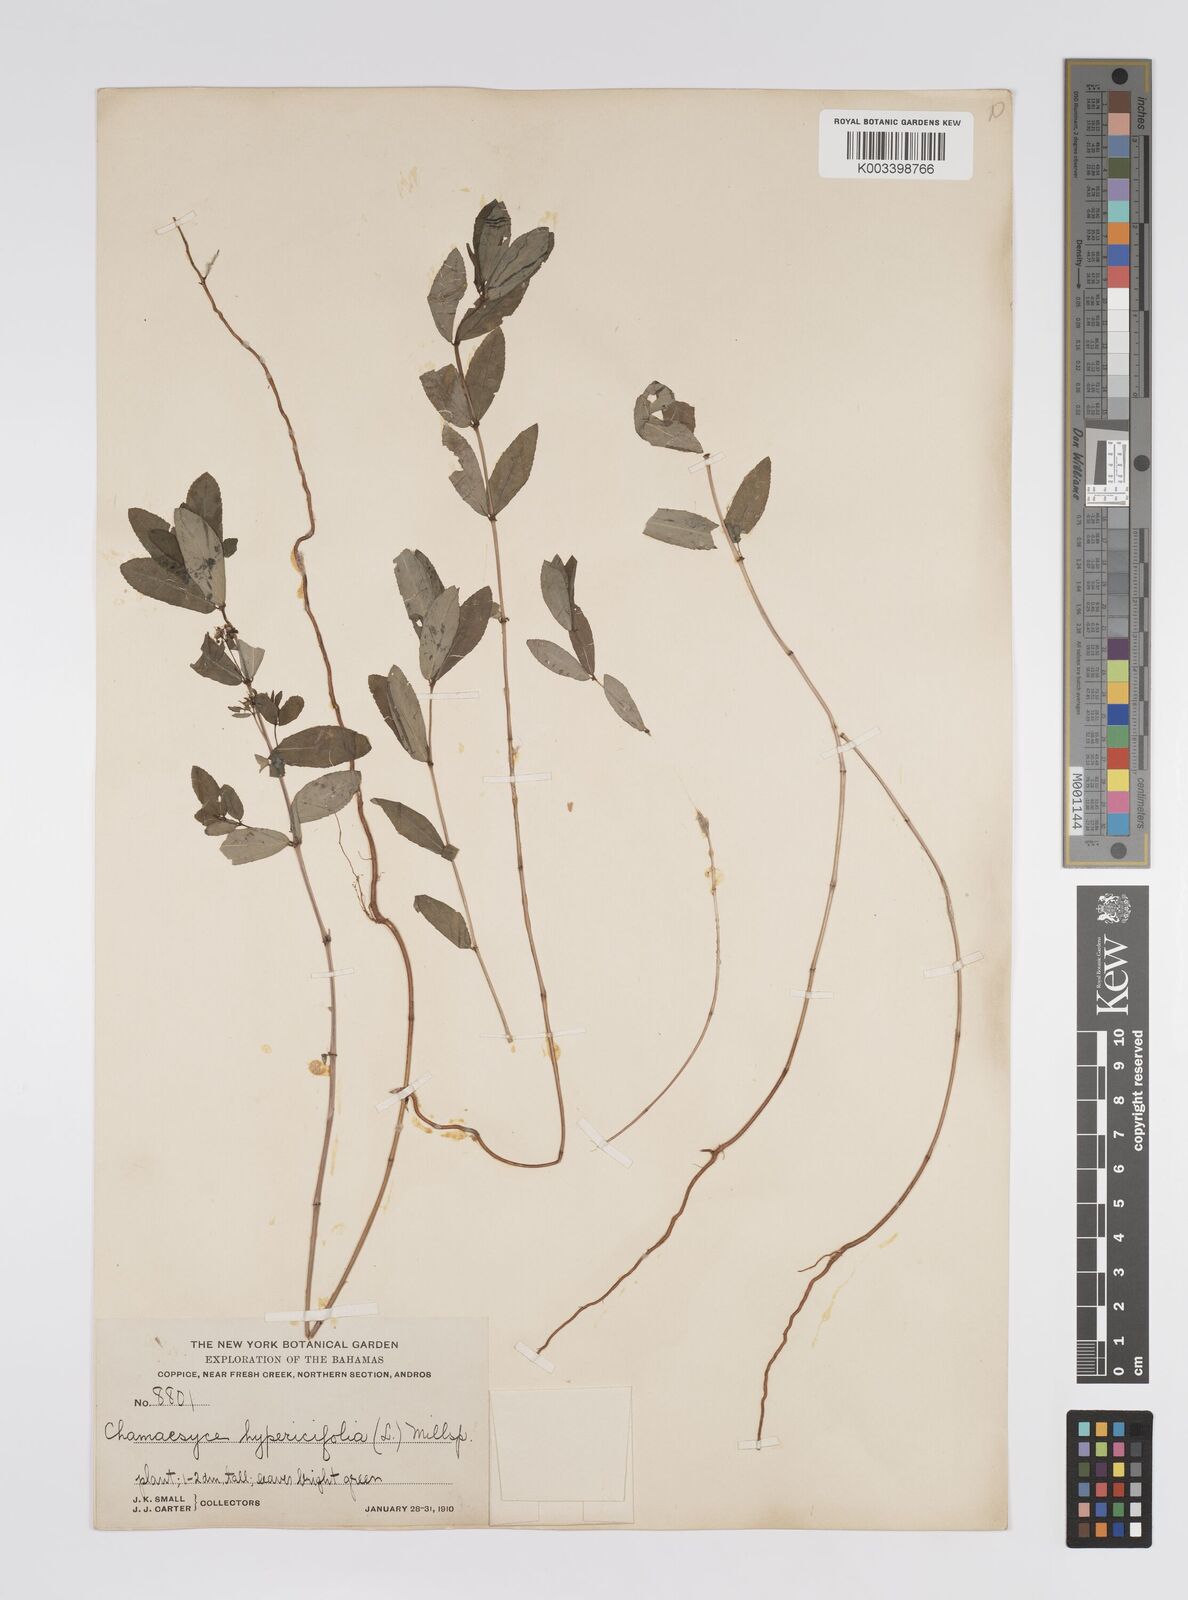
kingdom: Plantae
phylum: Tracheophyta
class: Magnoliopsida
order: Malpighiales
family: Euphorbiaceae
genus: Euphorbia
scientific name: Euphorbia hypericifolia
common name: Graceful sandmat
